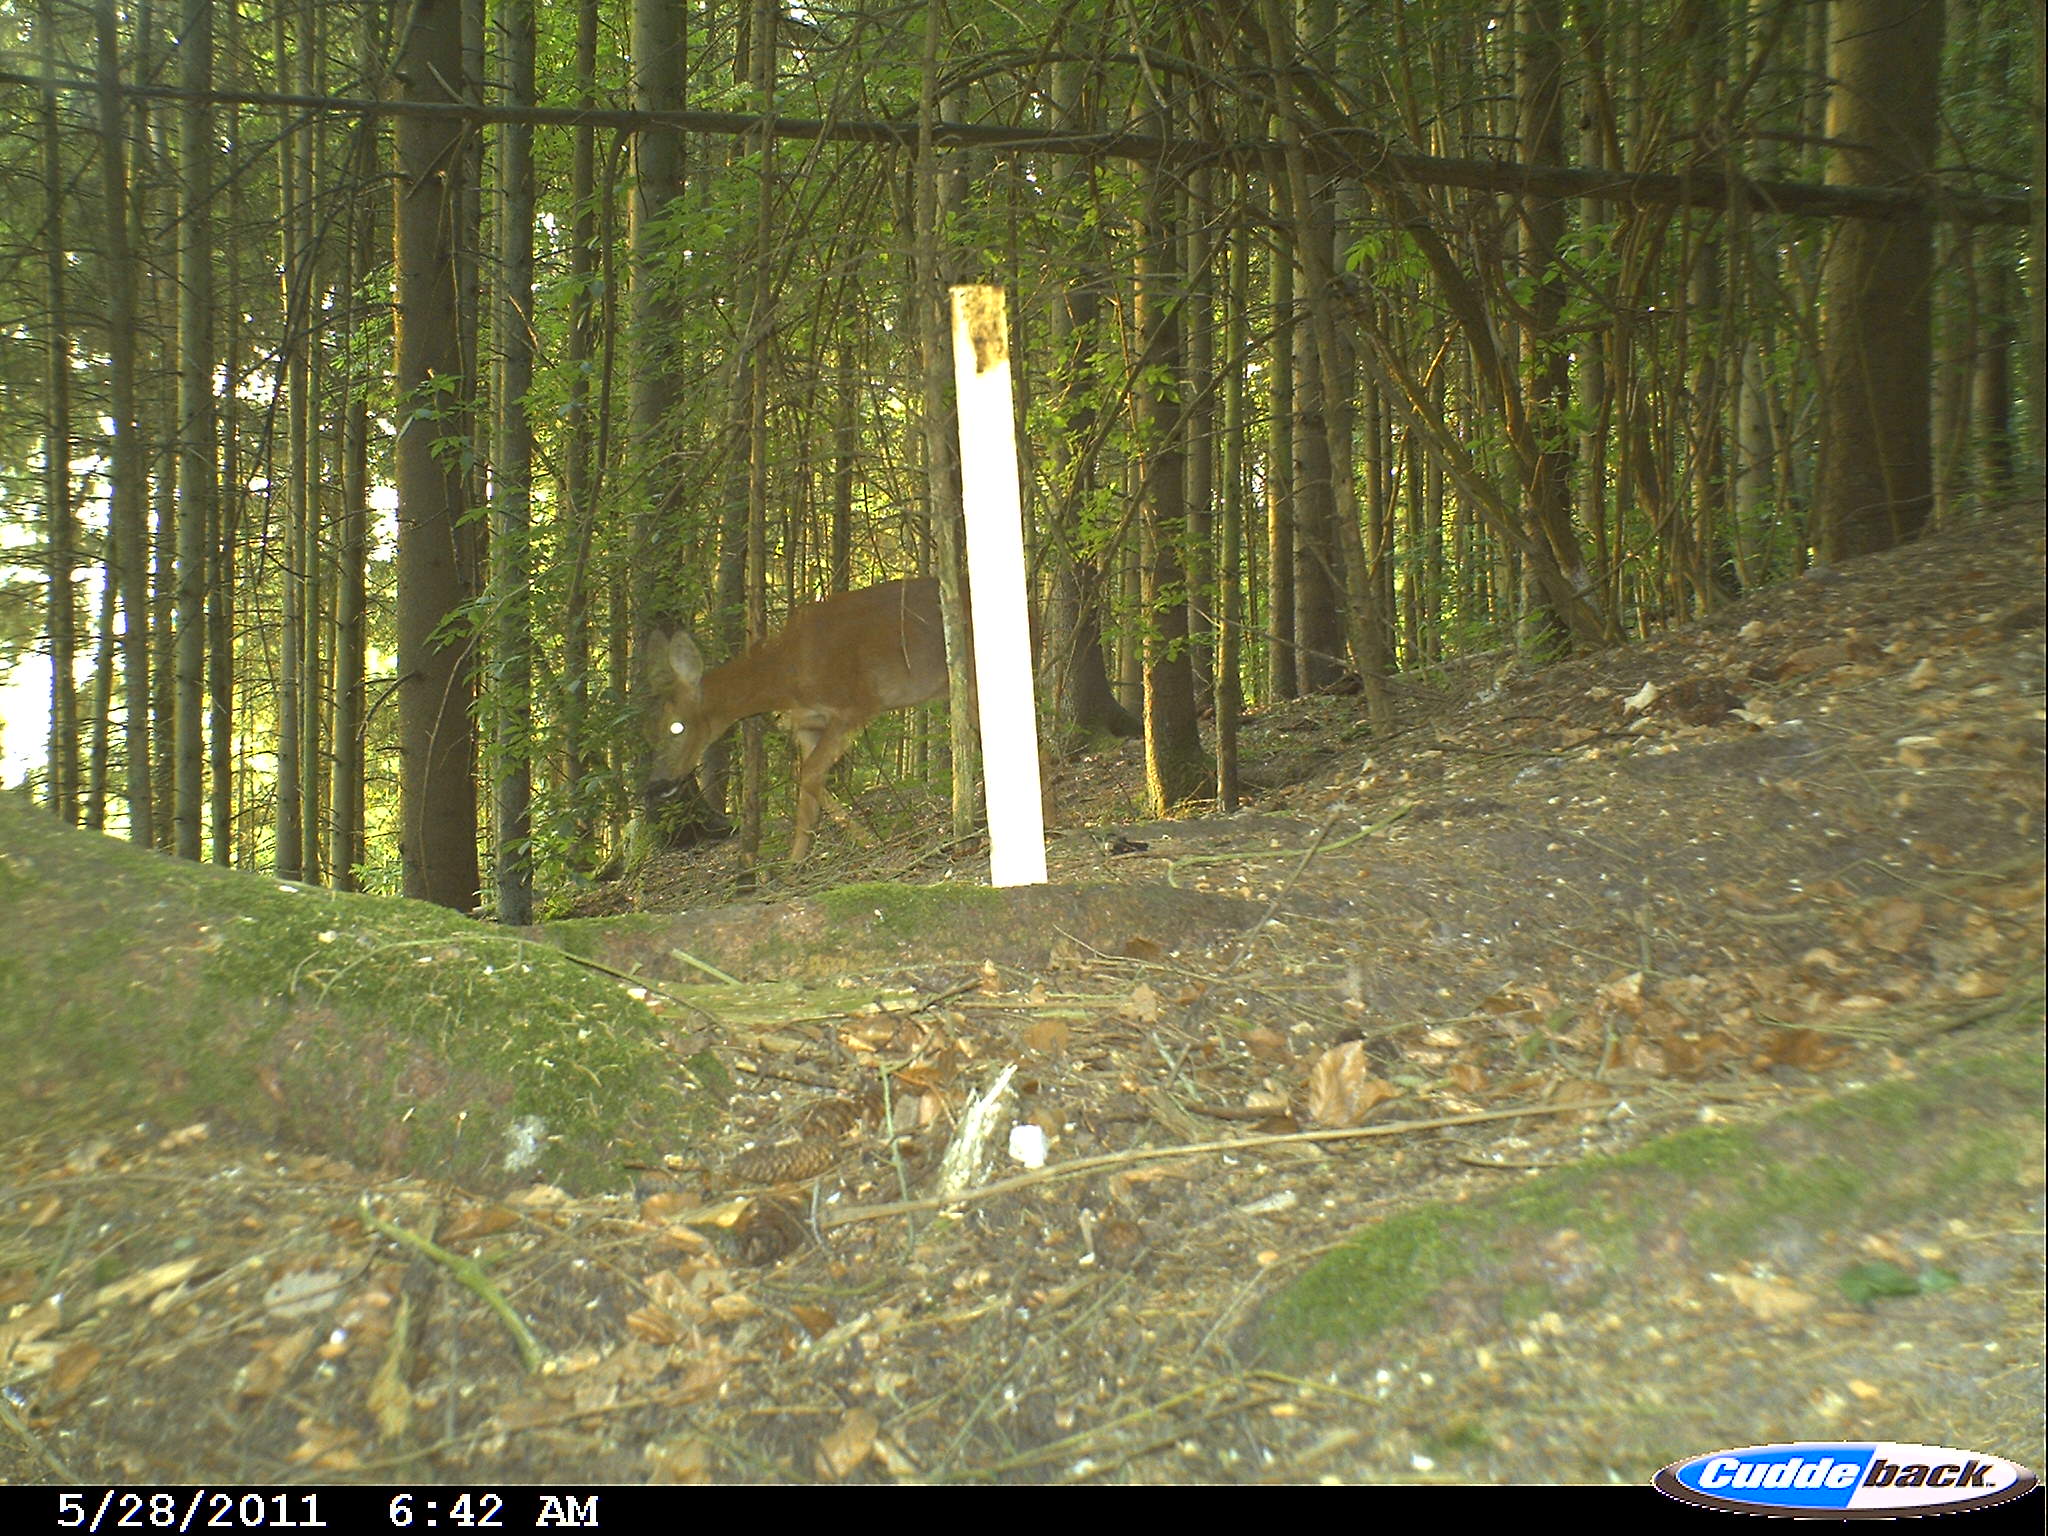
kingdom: Animalia
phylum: Chordata
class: Mammalia
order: Artiodactyla
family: Cervidae
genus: Capreolus
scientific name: Capreolus capreolus
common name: Western roe deer
